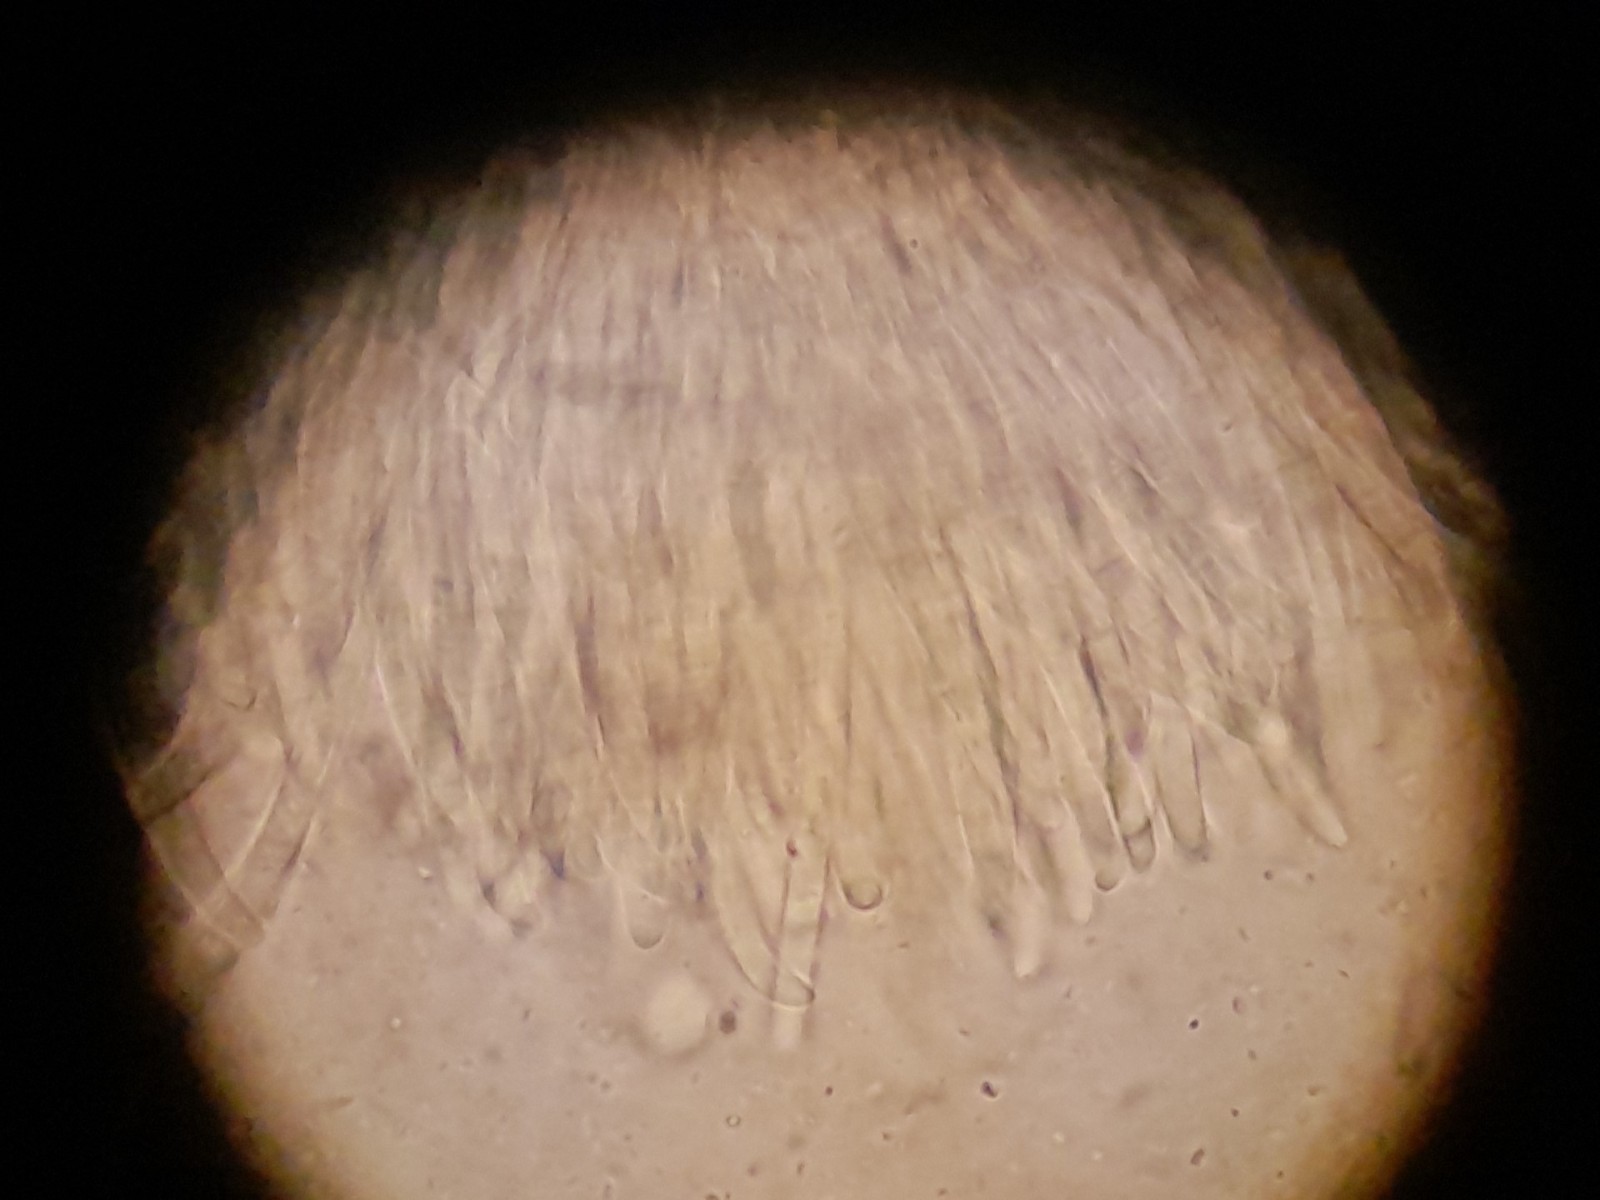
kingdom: Fungi
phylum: Ascomycota
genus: Excipularia
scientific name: Excipularia fusispora
